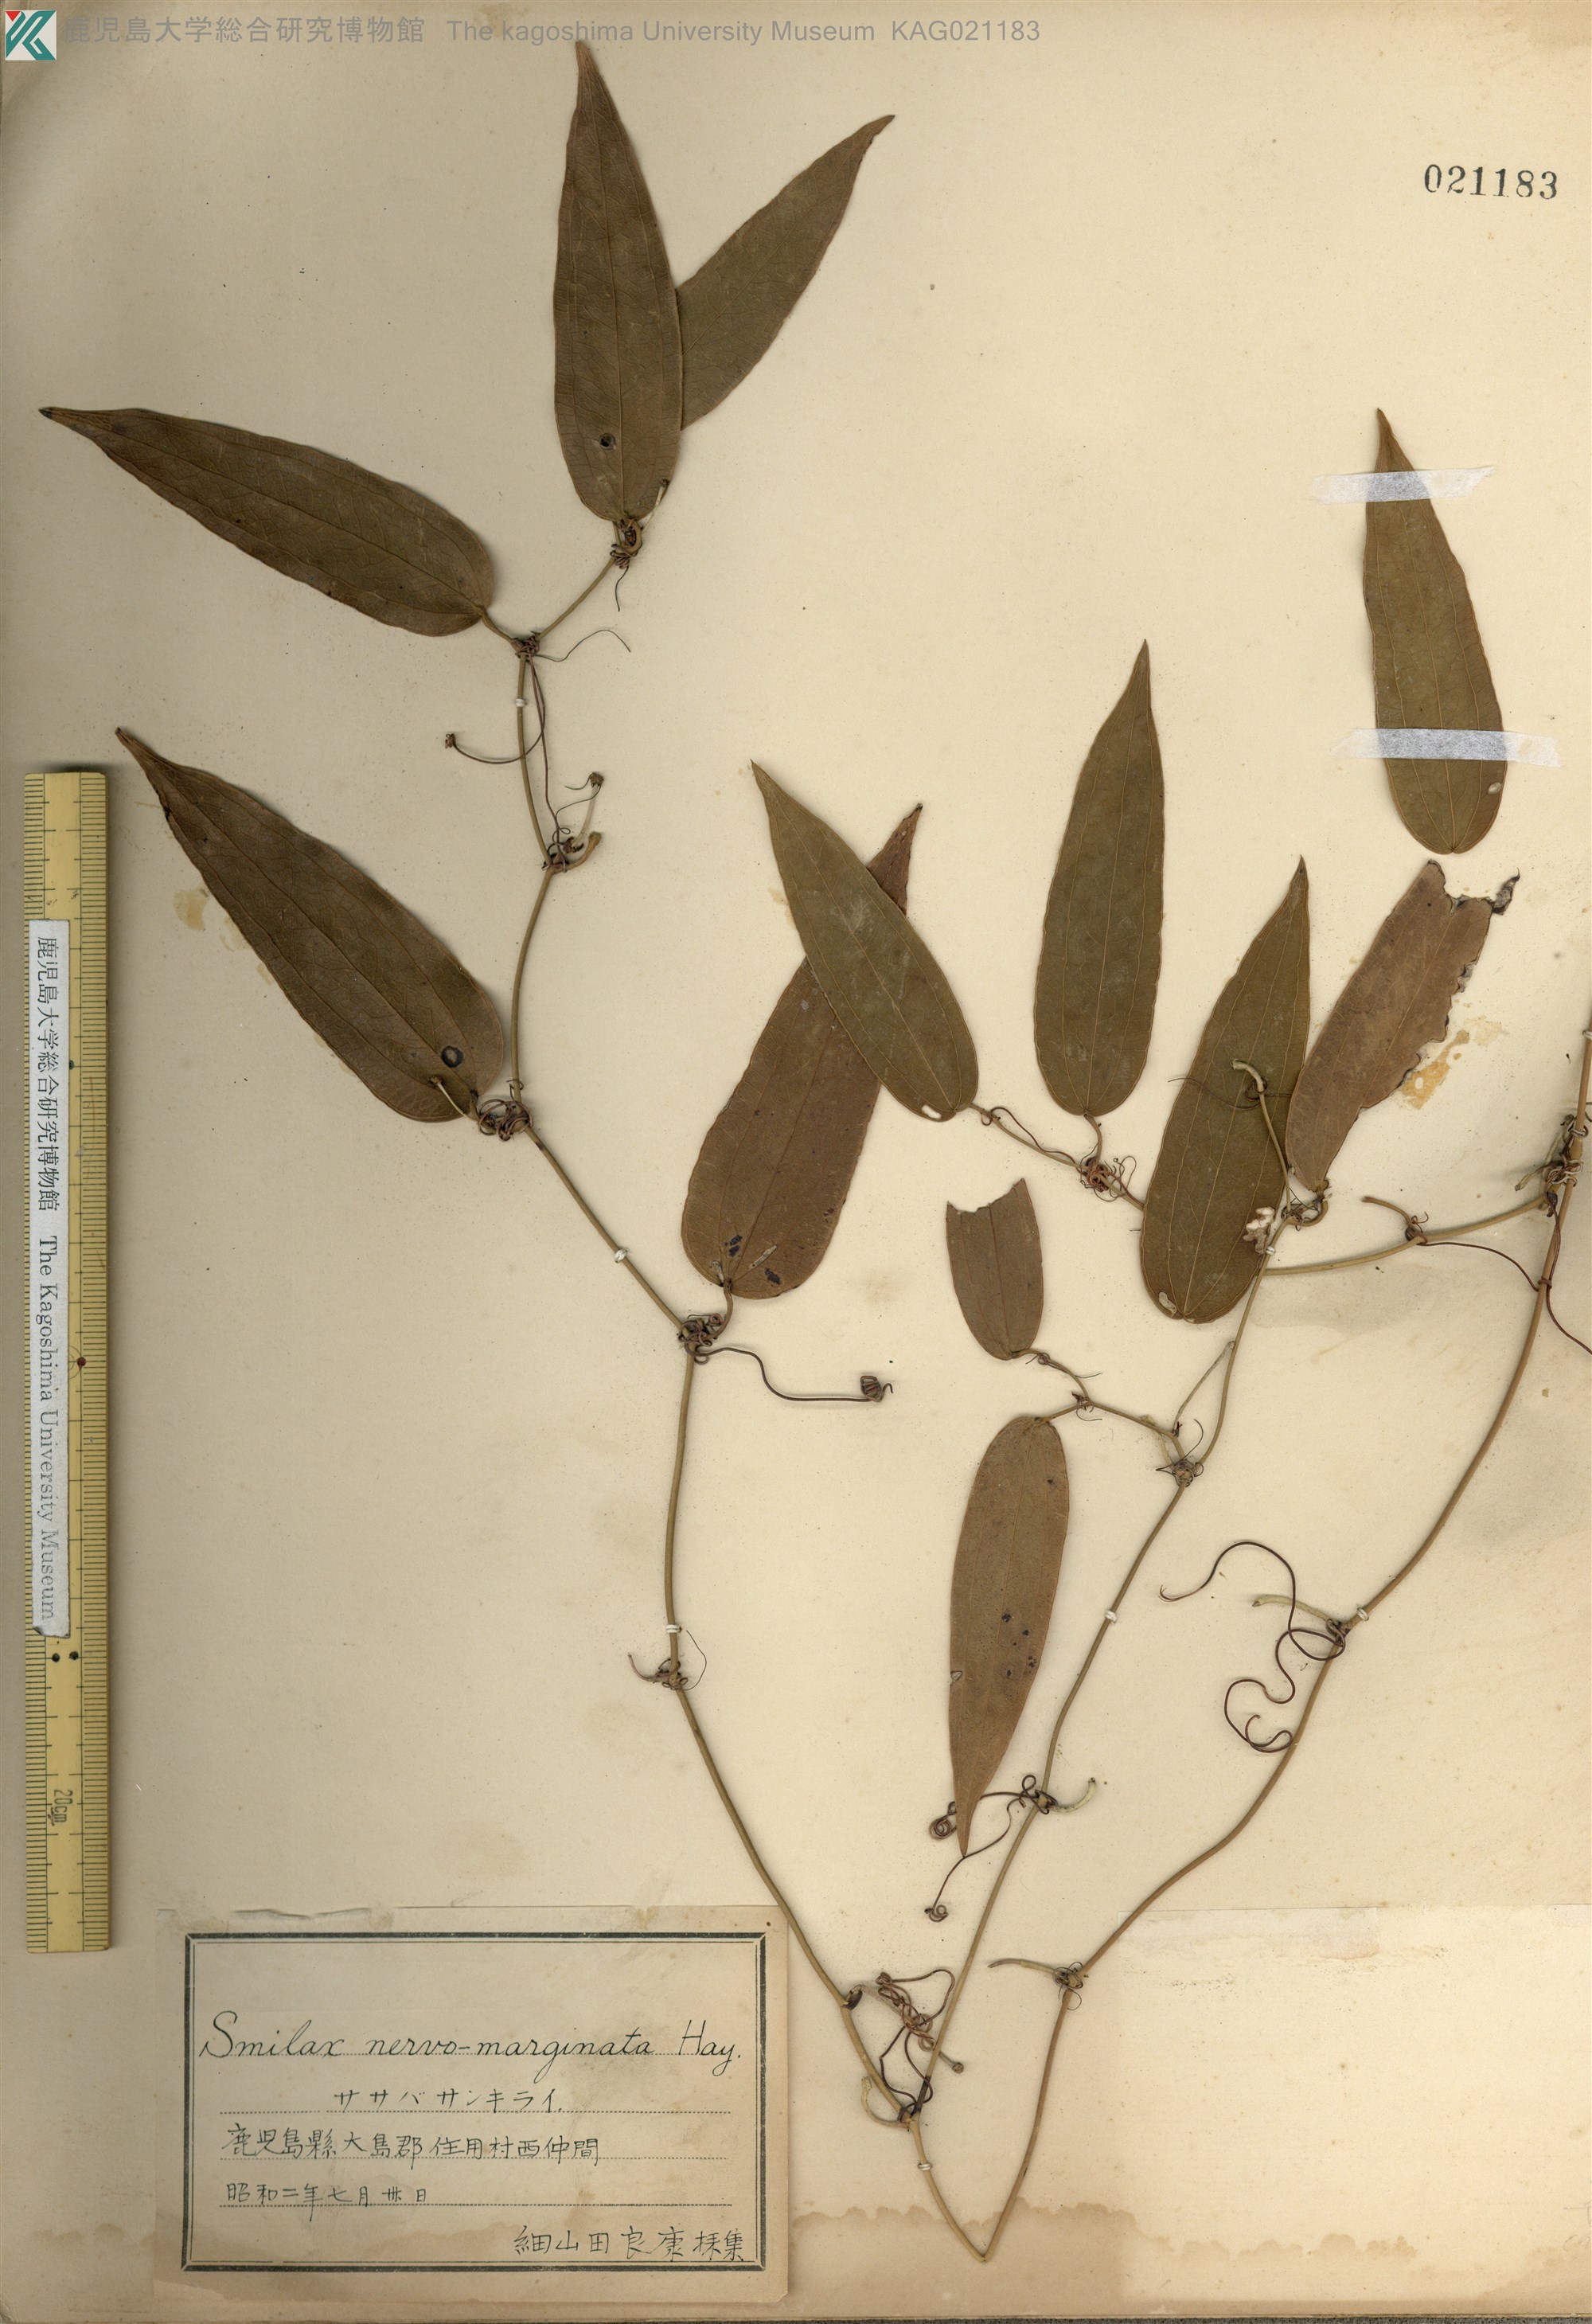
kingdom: Plantae
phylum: Tracheophyta
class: Liliopsida
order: Liliales
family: Smilacaceae
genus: Smilax
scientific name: Smilax nervomarginata
